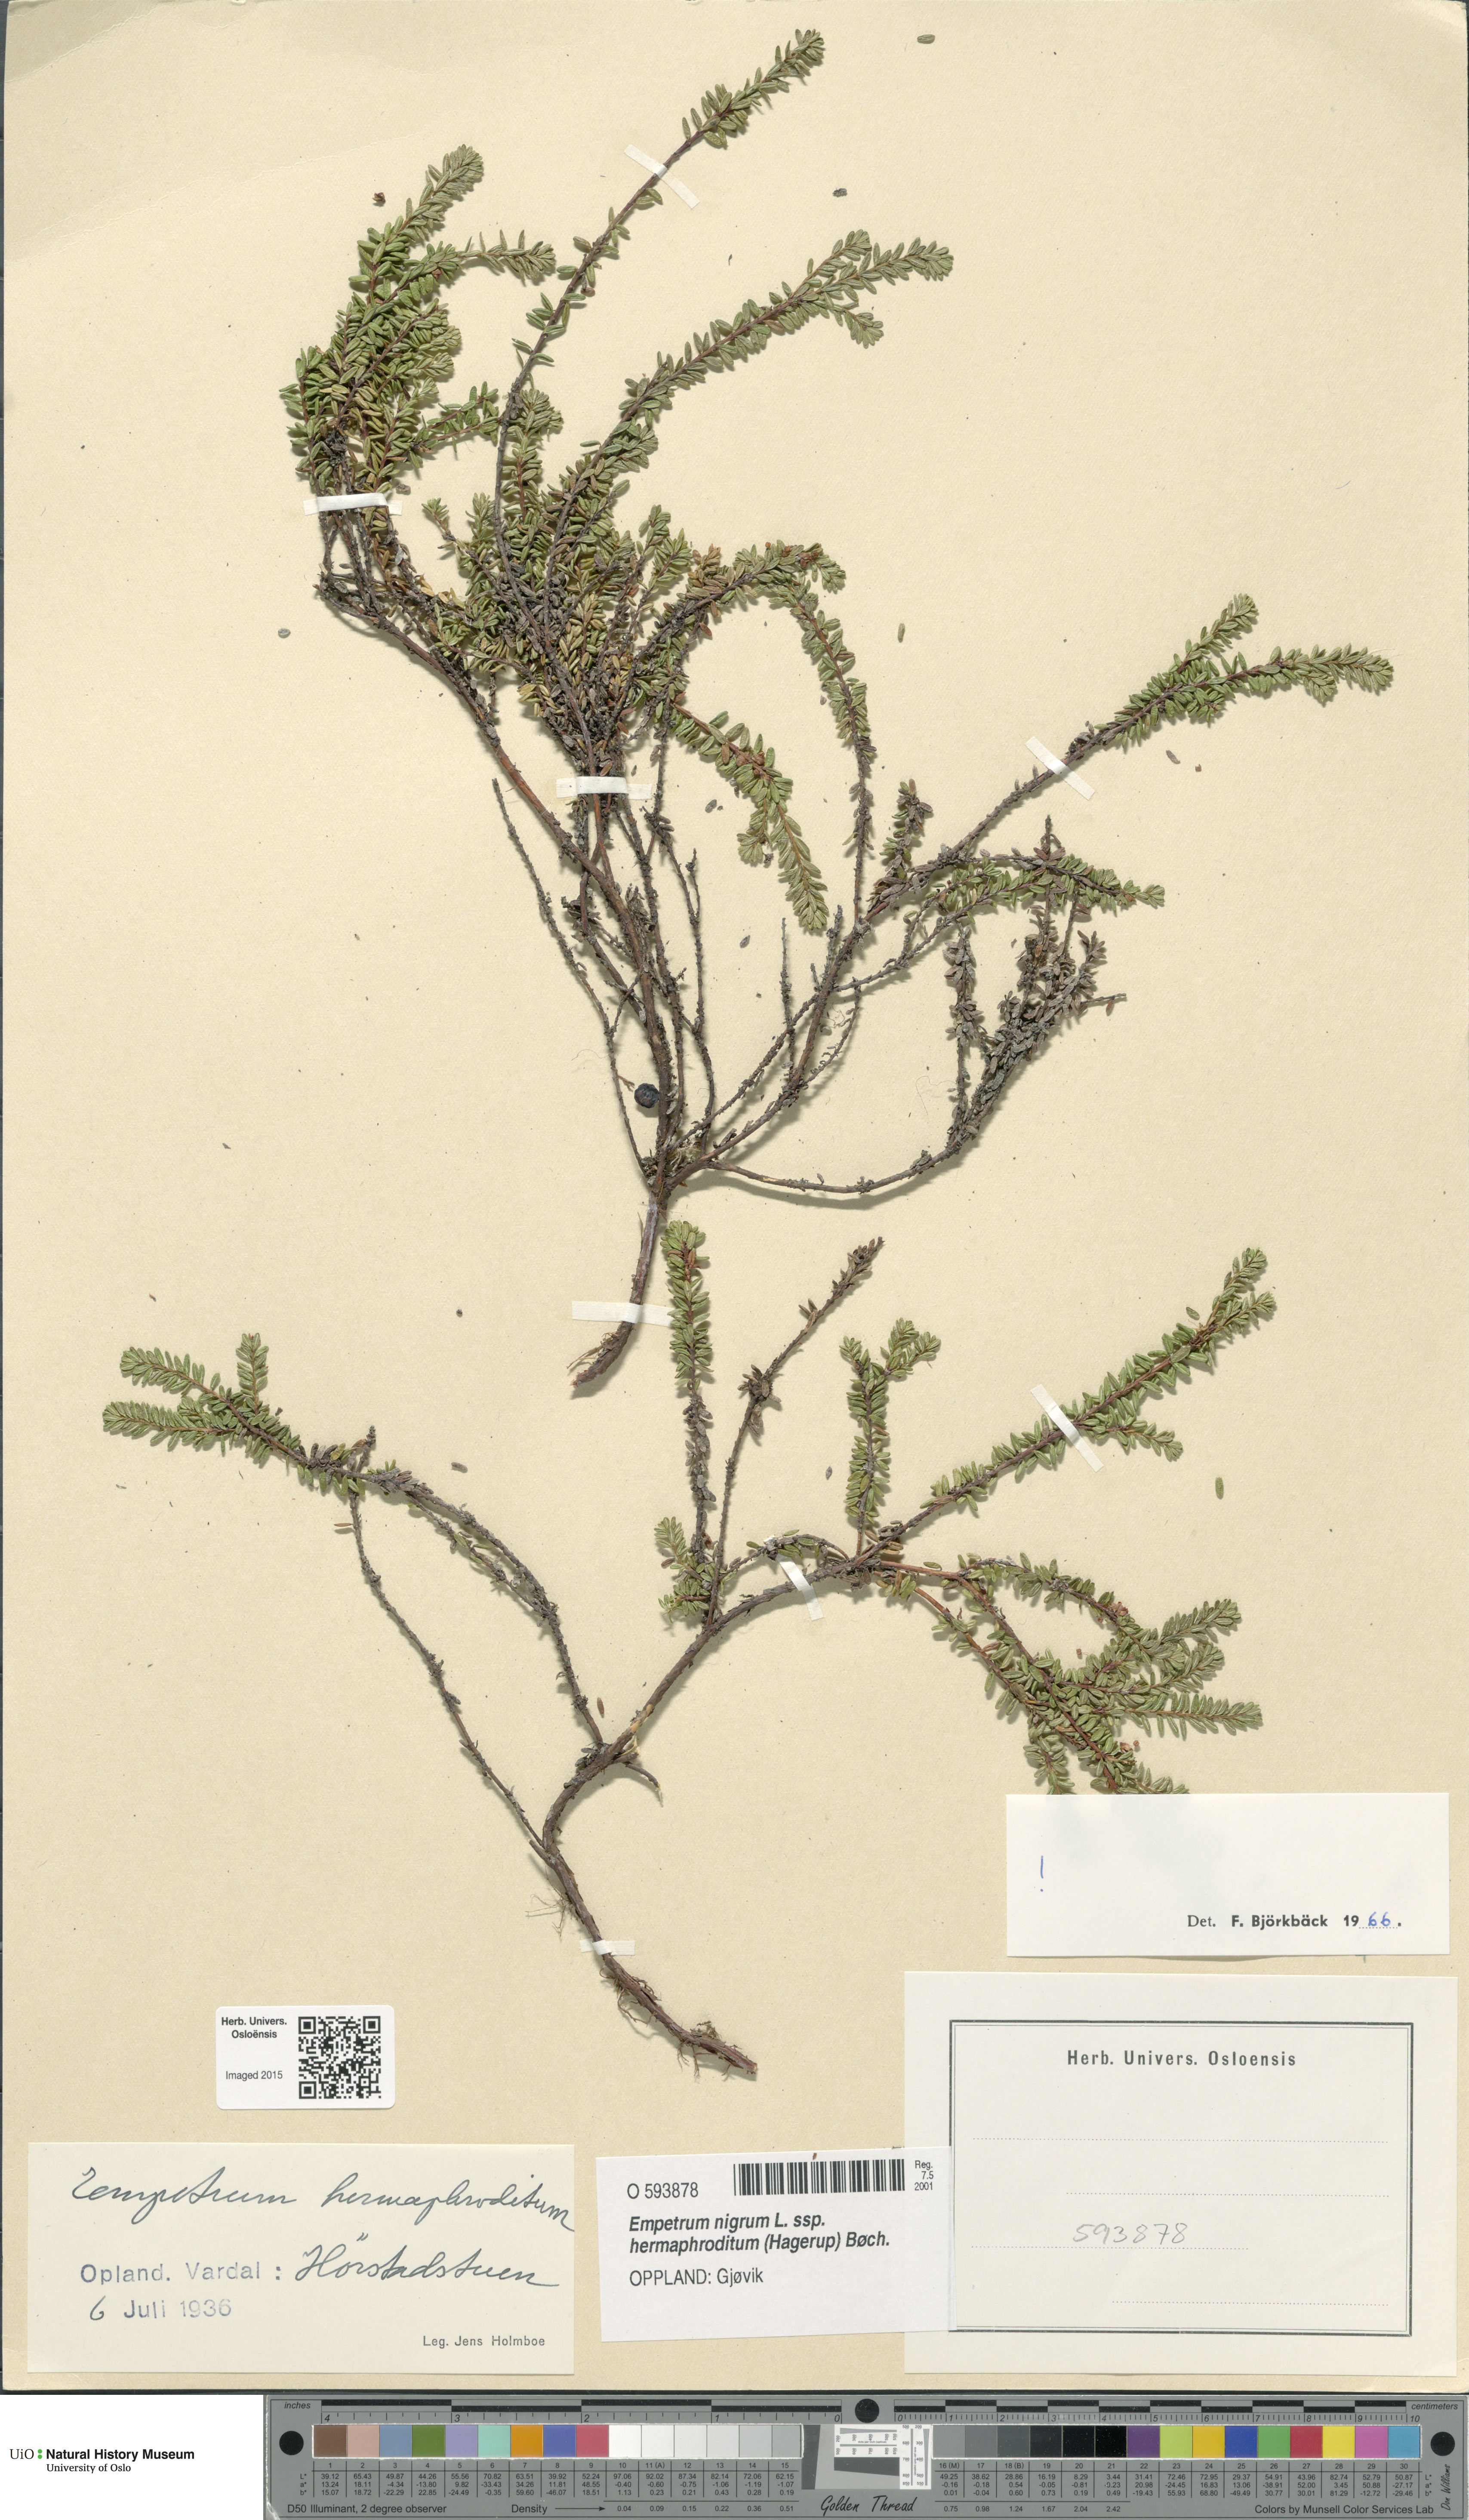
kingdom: Plantae
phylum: Tracheophyta
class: Magnoliopsida
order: Ericales
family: Ericaceae
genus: Empetrum
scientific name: Empetrum hermaphroditum
